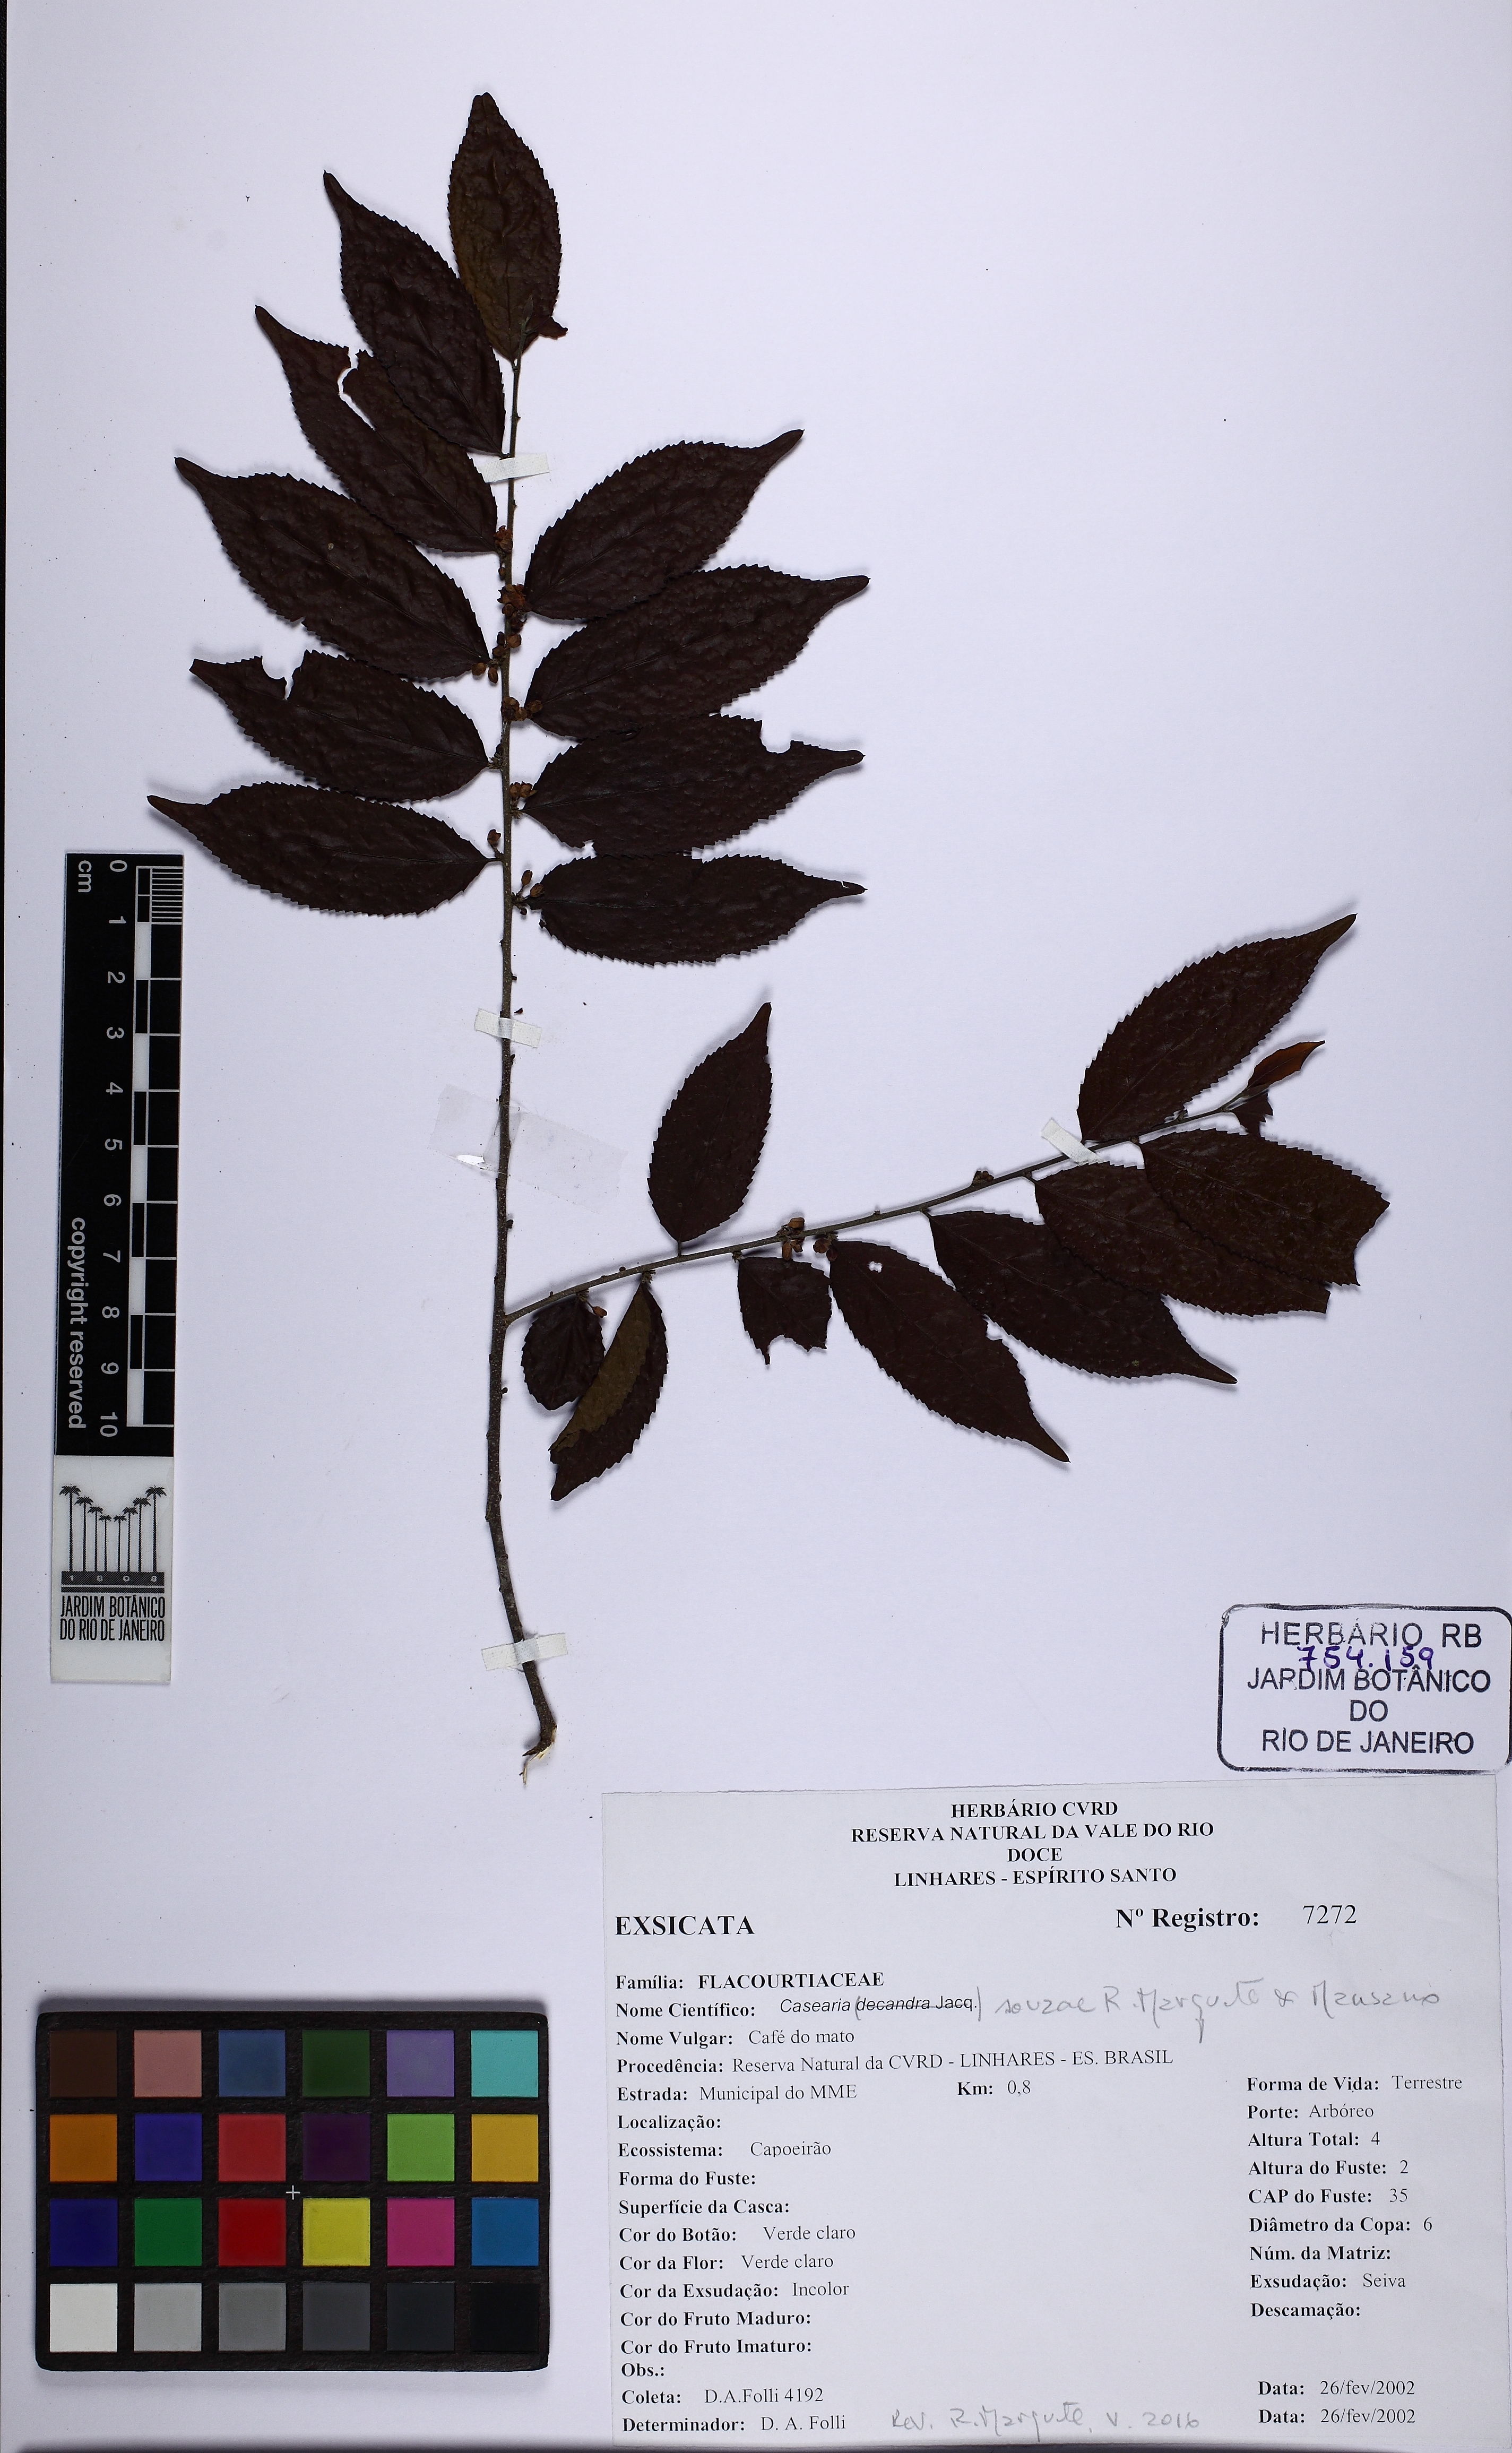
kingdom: Plantae
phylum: Tracheophyta
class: Magnoliopsida
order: Malpighiales
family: Salicaceae
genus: Casearia
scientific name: Casearia souzae
